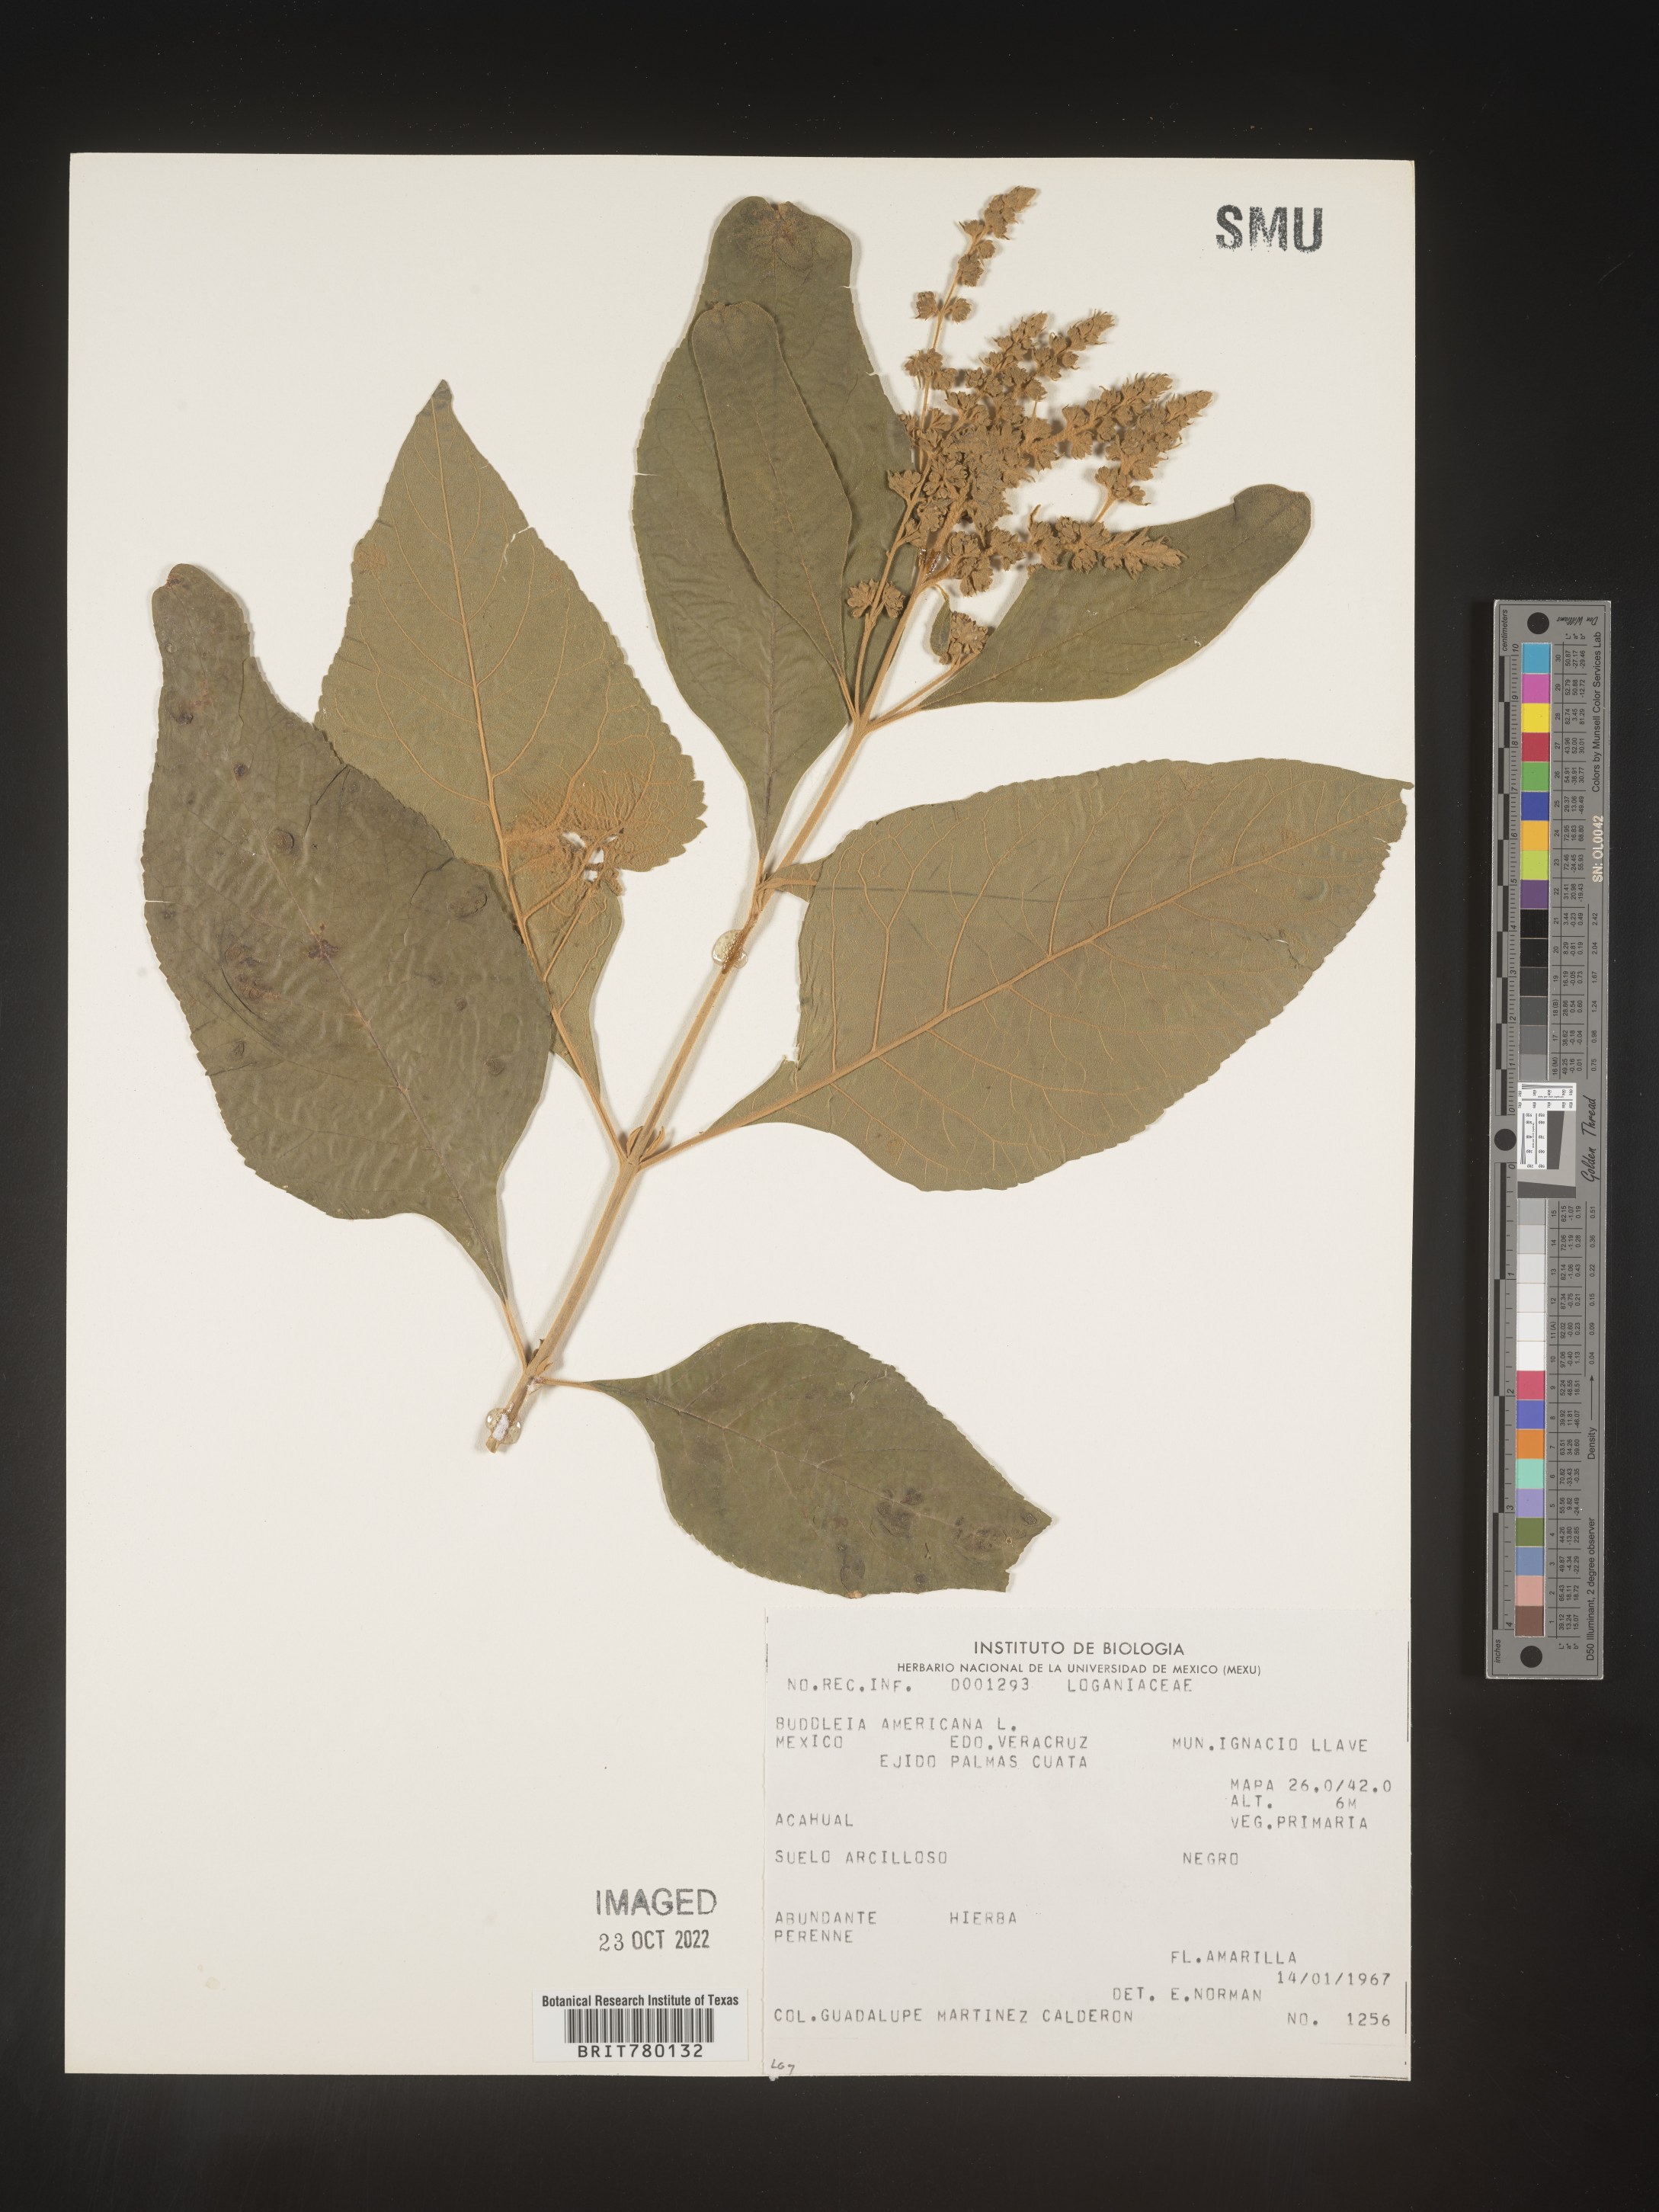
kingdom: Plantae
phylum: Tracheophyta
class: Magnoliopsida
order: Lamiales
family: Scrophulariaceae
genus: Buddleja
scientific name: Buddleja
